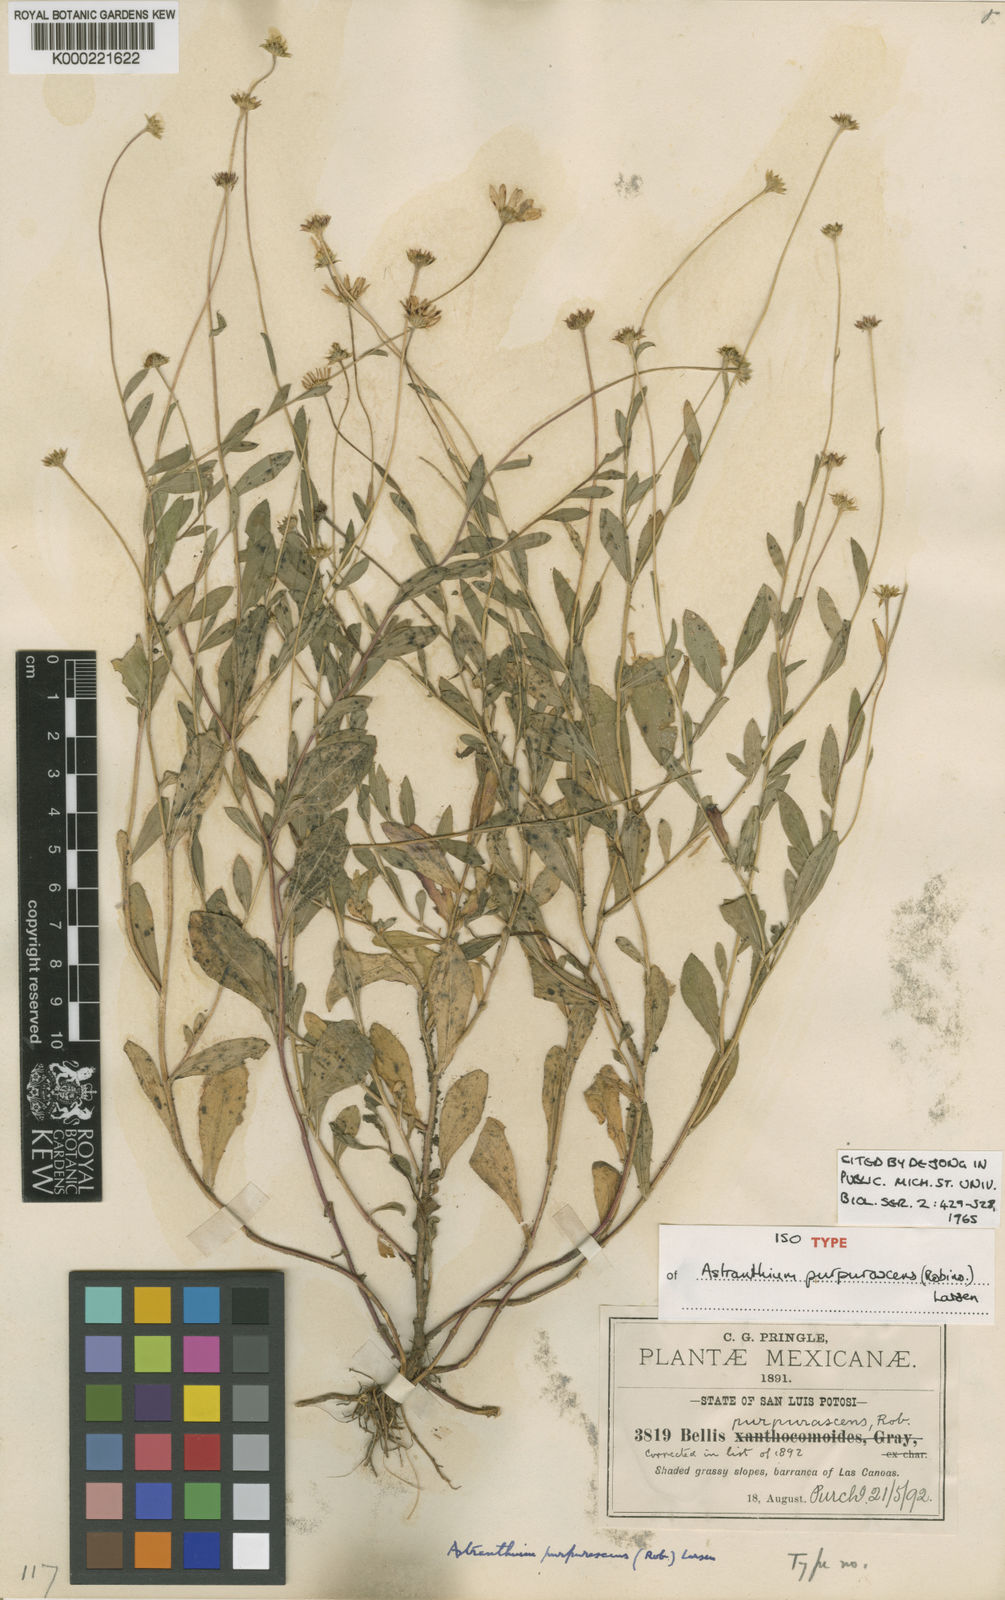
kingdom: Plantae
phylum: Tracheophyta
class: Magnoliopsida
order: Asterales
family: Asteraceae
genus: Astranthium
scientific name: Astranthium purpurascens
